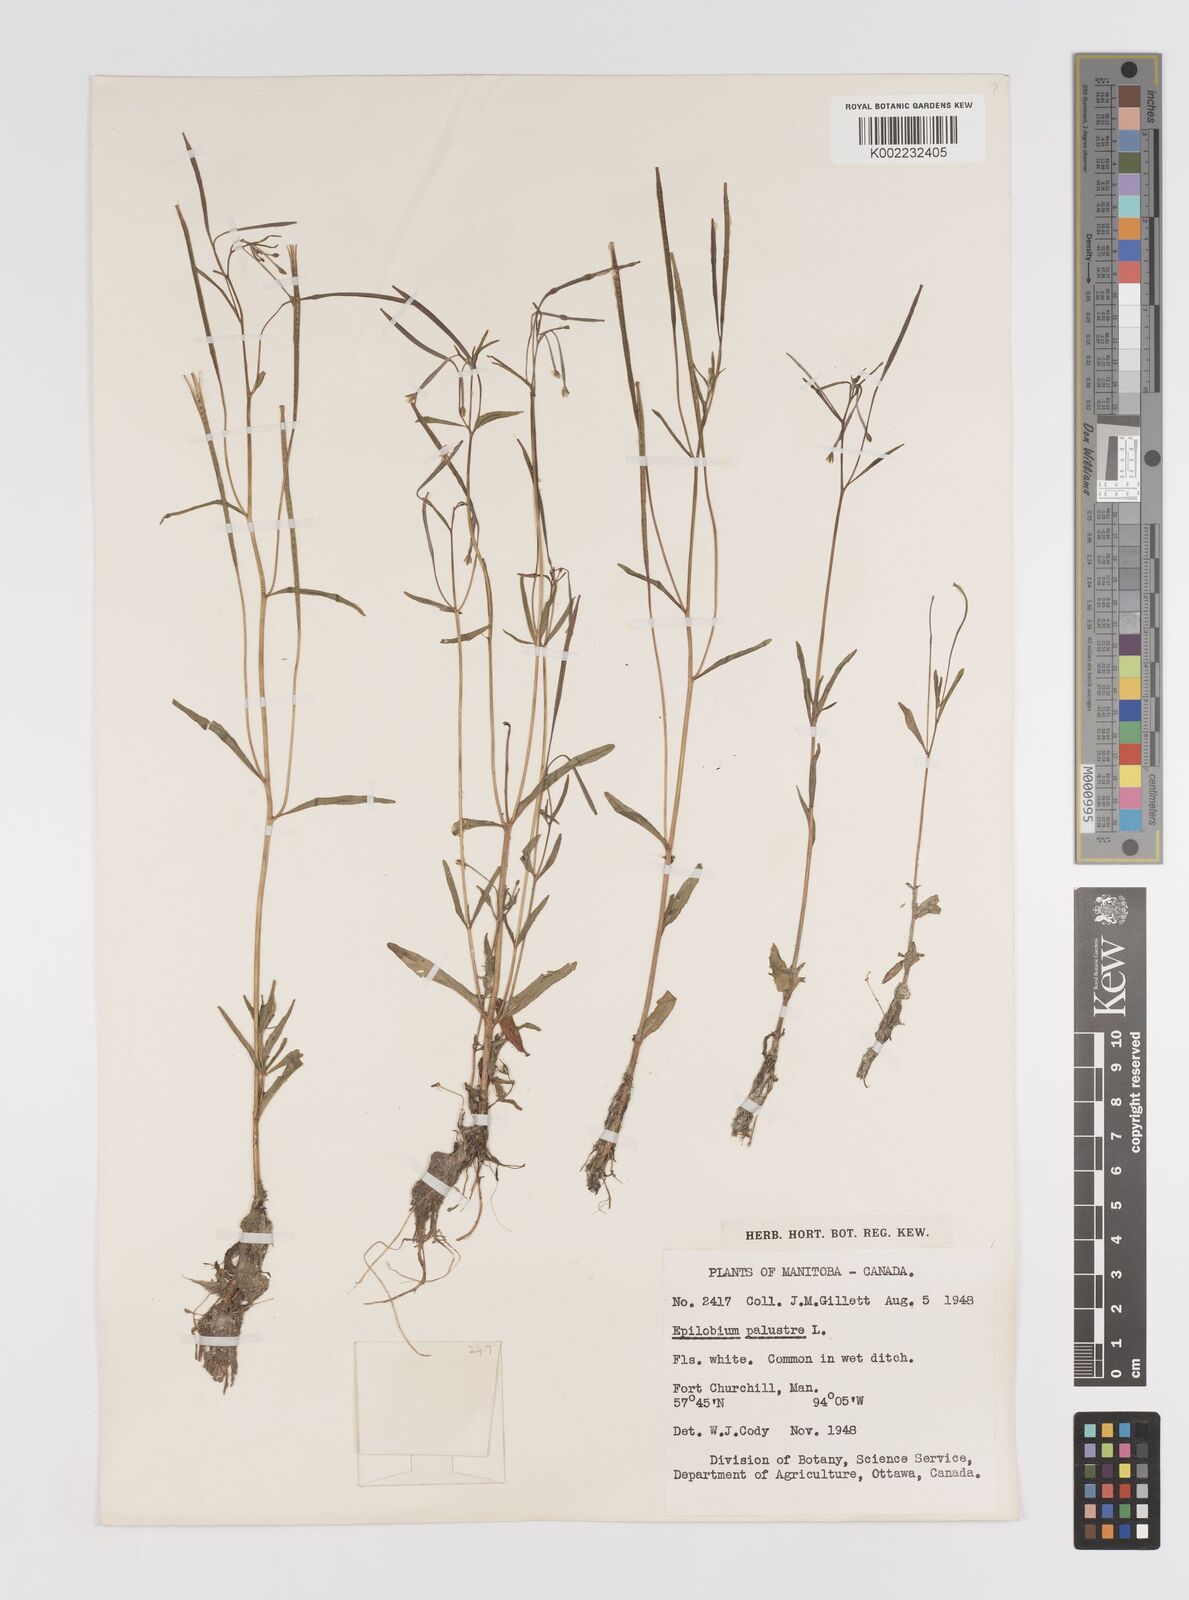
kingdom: Plantae
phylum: Tracheophyta
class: Magnoliopsida
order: Myrtales
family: Onagraceae
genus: Epilobium
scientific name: Epilobium palustre
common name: Marsh willowherb
